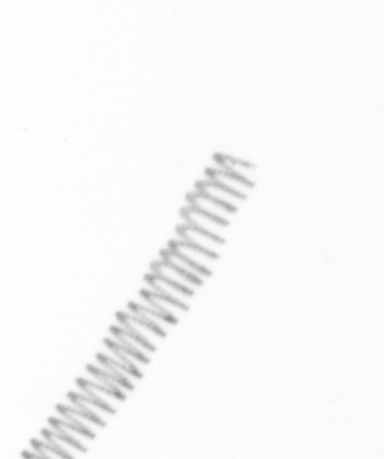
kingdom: Chromista
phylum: Ochrophyta
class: Bacillariophyceae
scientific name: Bacillariophyceae
